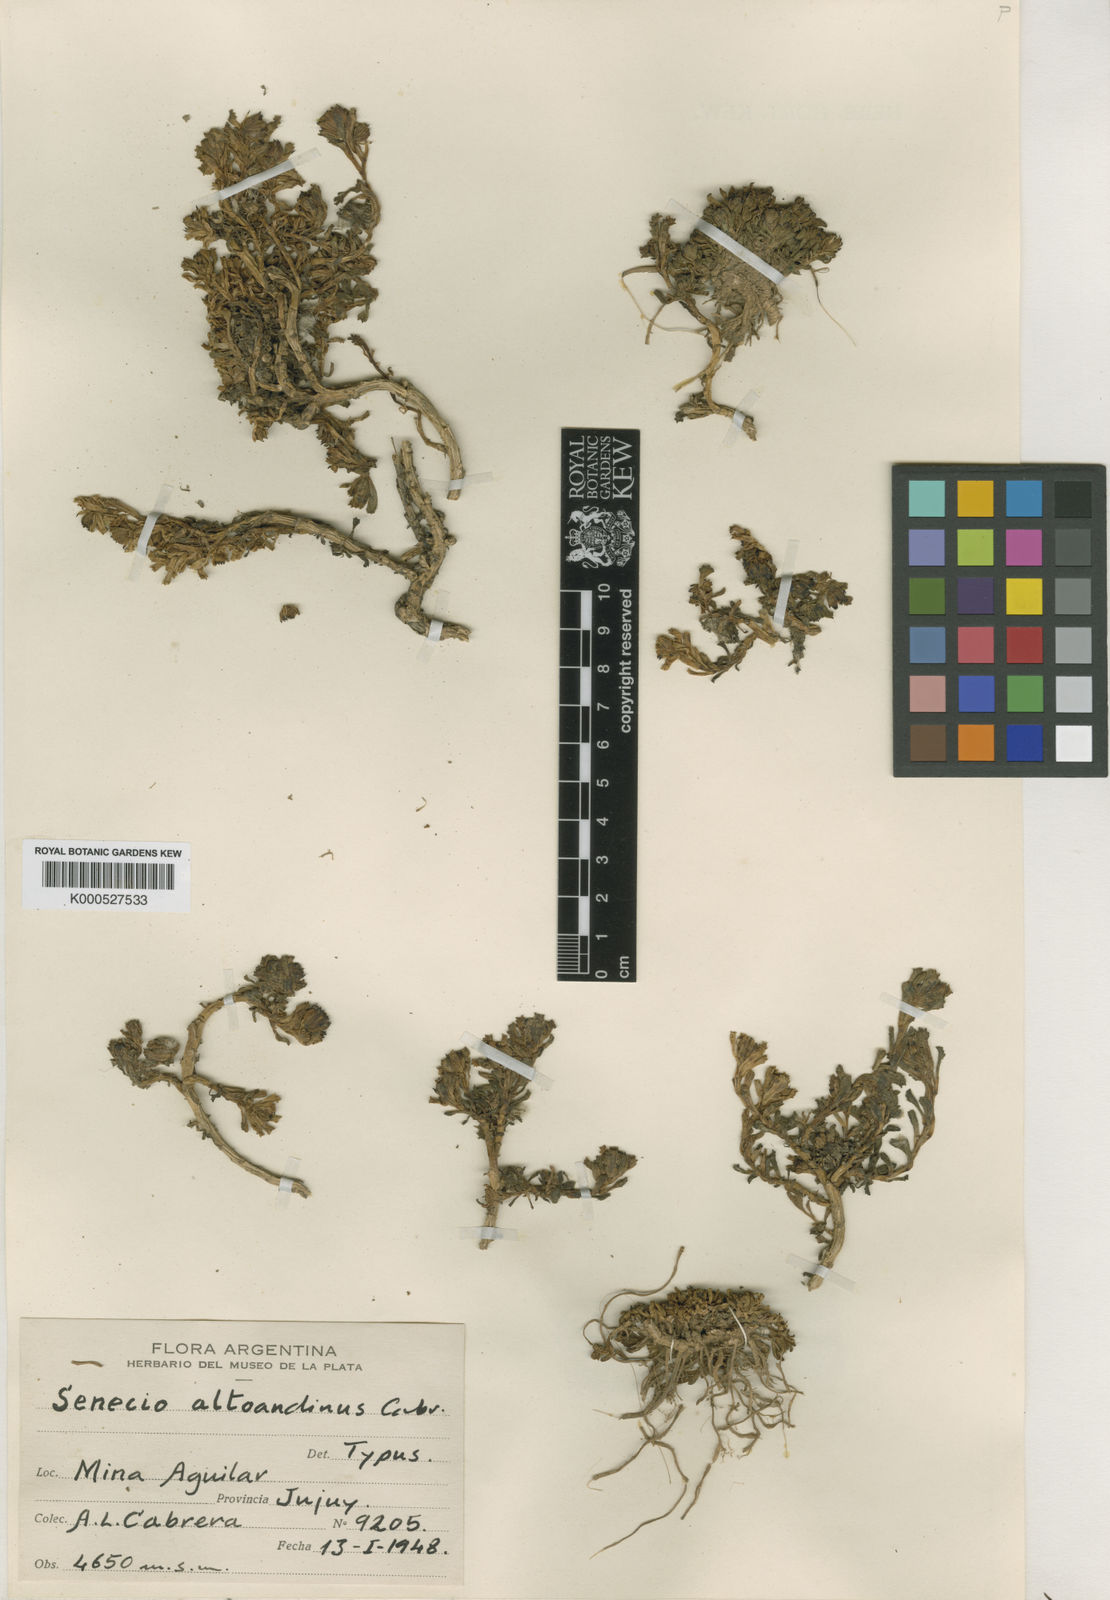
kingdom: Plantae
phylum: Tracheophyta
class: Magnoliopsida
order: Asterales
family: Asteraceae
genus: Senecio
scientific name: Senecio altoandinus
